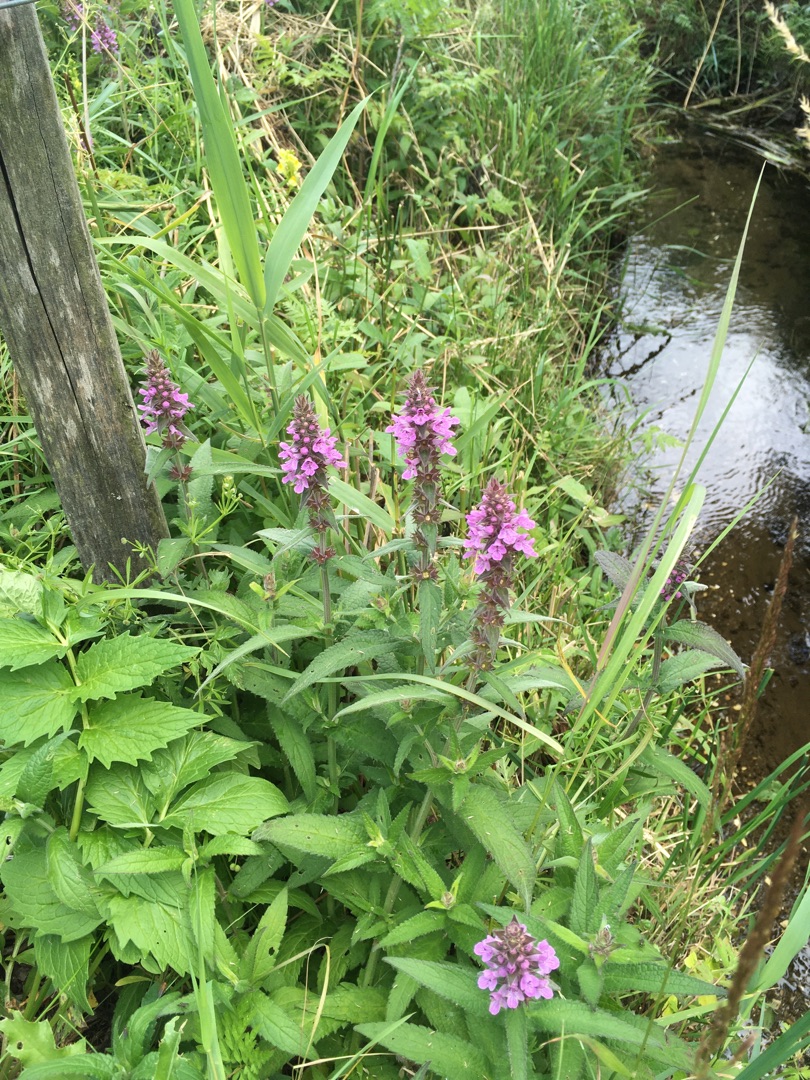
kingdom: Plantae
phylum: Tracheophyta
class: Magnoliopsida
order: Lamiales
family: Lamiaceae
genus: Stachys
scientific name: Stachys palustris
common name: Kær-galtetand
